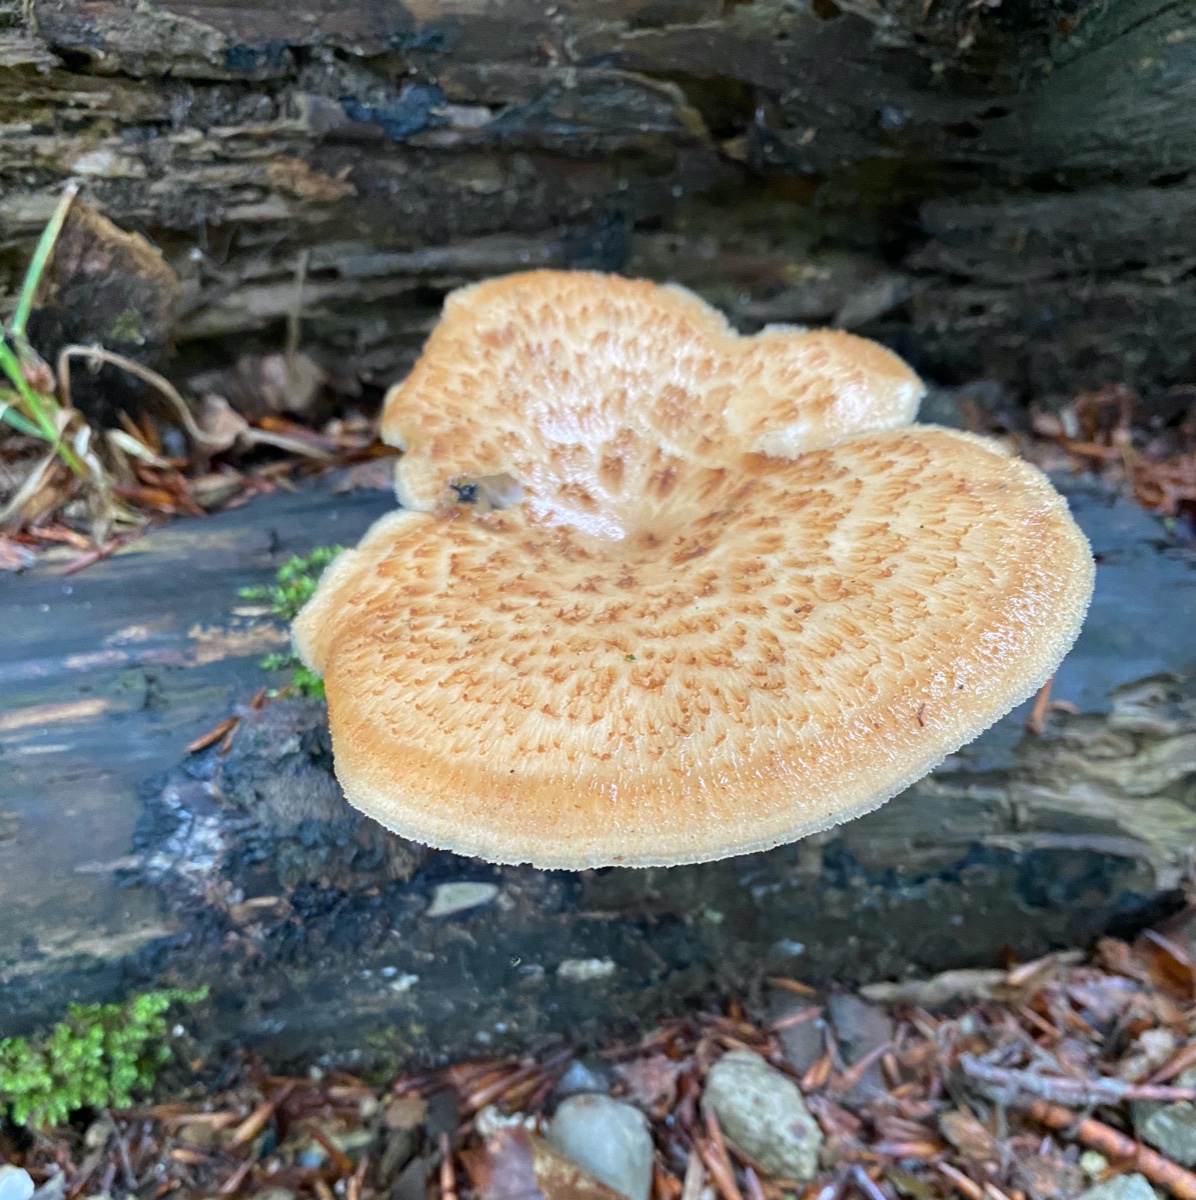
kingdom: Fungi
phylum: Basidiomycota
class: Agaricomycetes
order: Polyporales
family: Polyporaceae
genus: Polyporus
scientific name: Polyporus tuberaster
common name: knoldet stilkporesvamp
